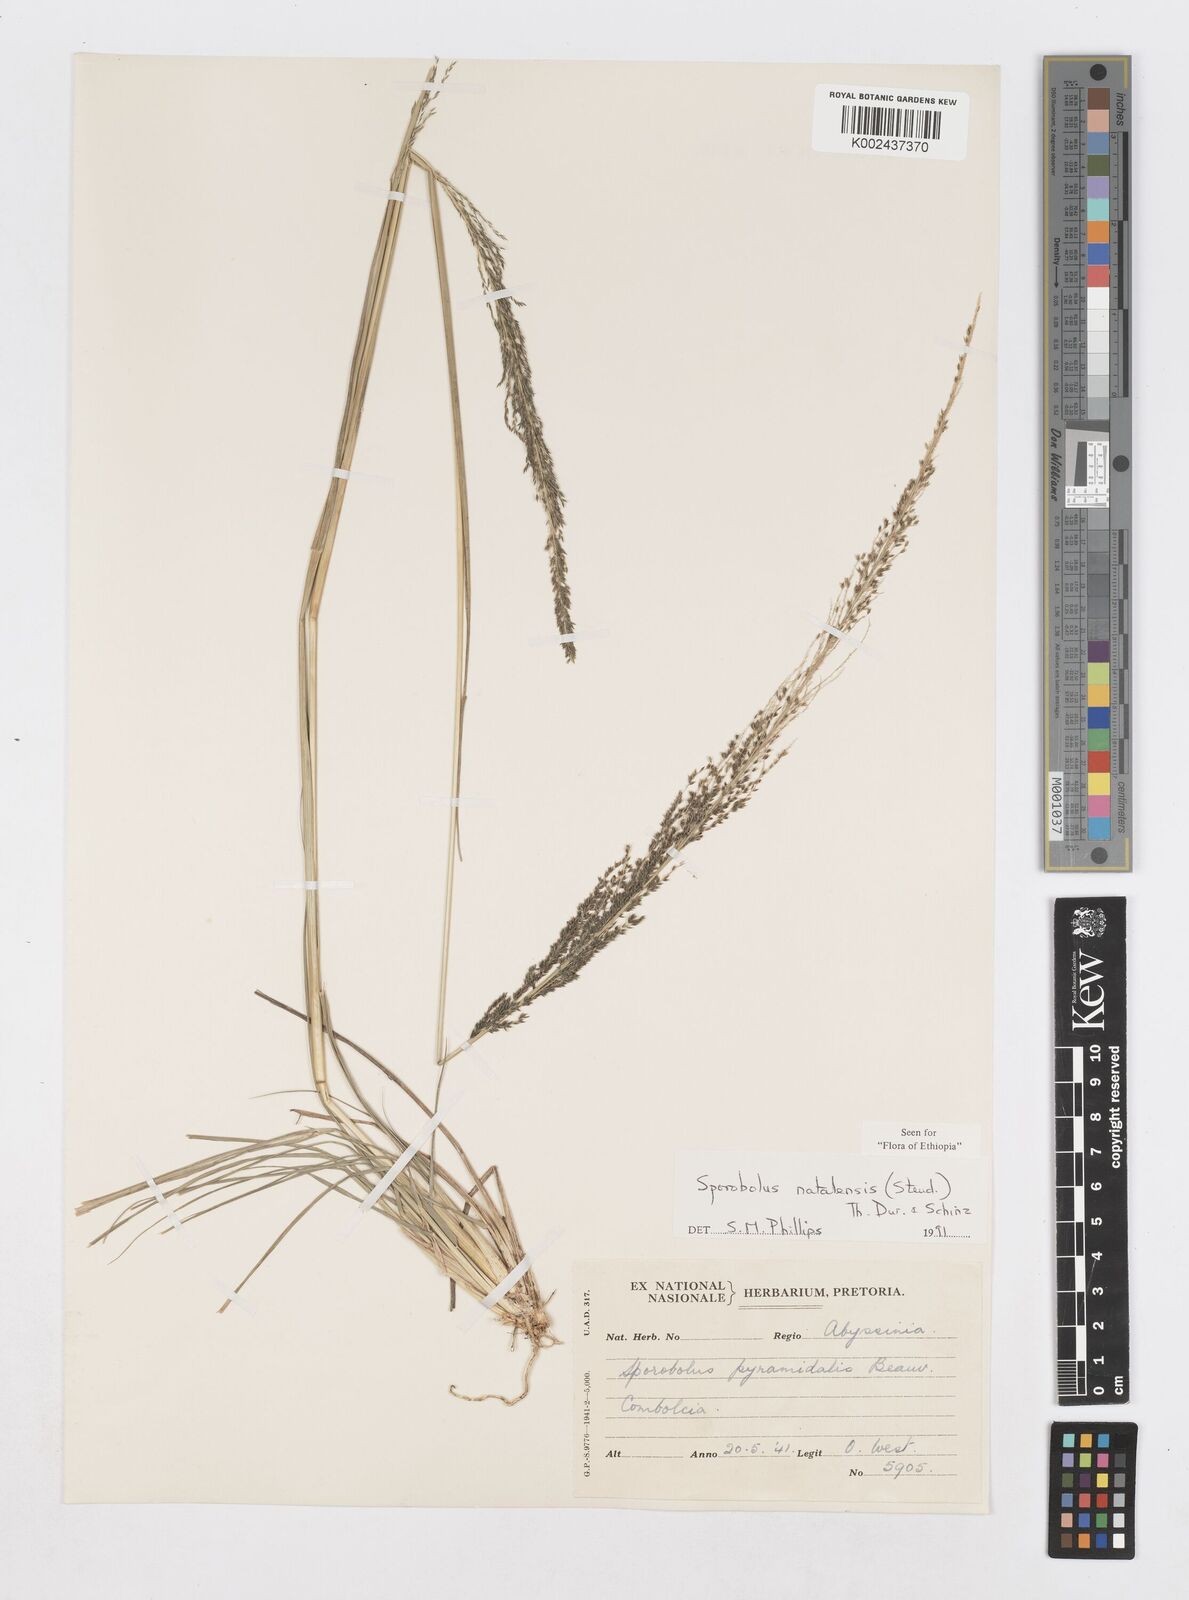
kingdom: Plantae
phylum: Tracheophyta
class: Liliopsida
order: Poales
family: Poaceae
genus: Sporobolus
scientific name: Sporobolus natalensis
